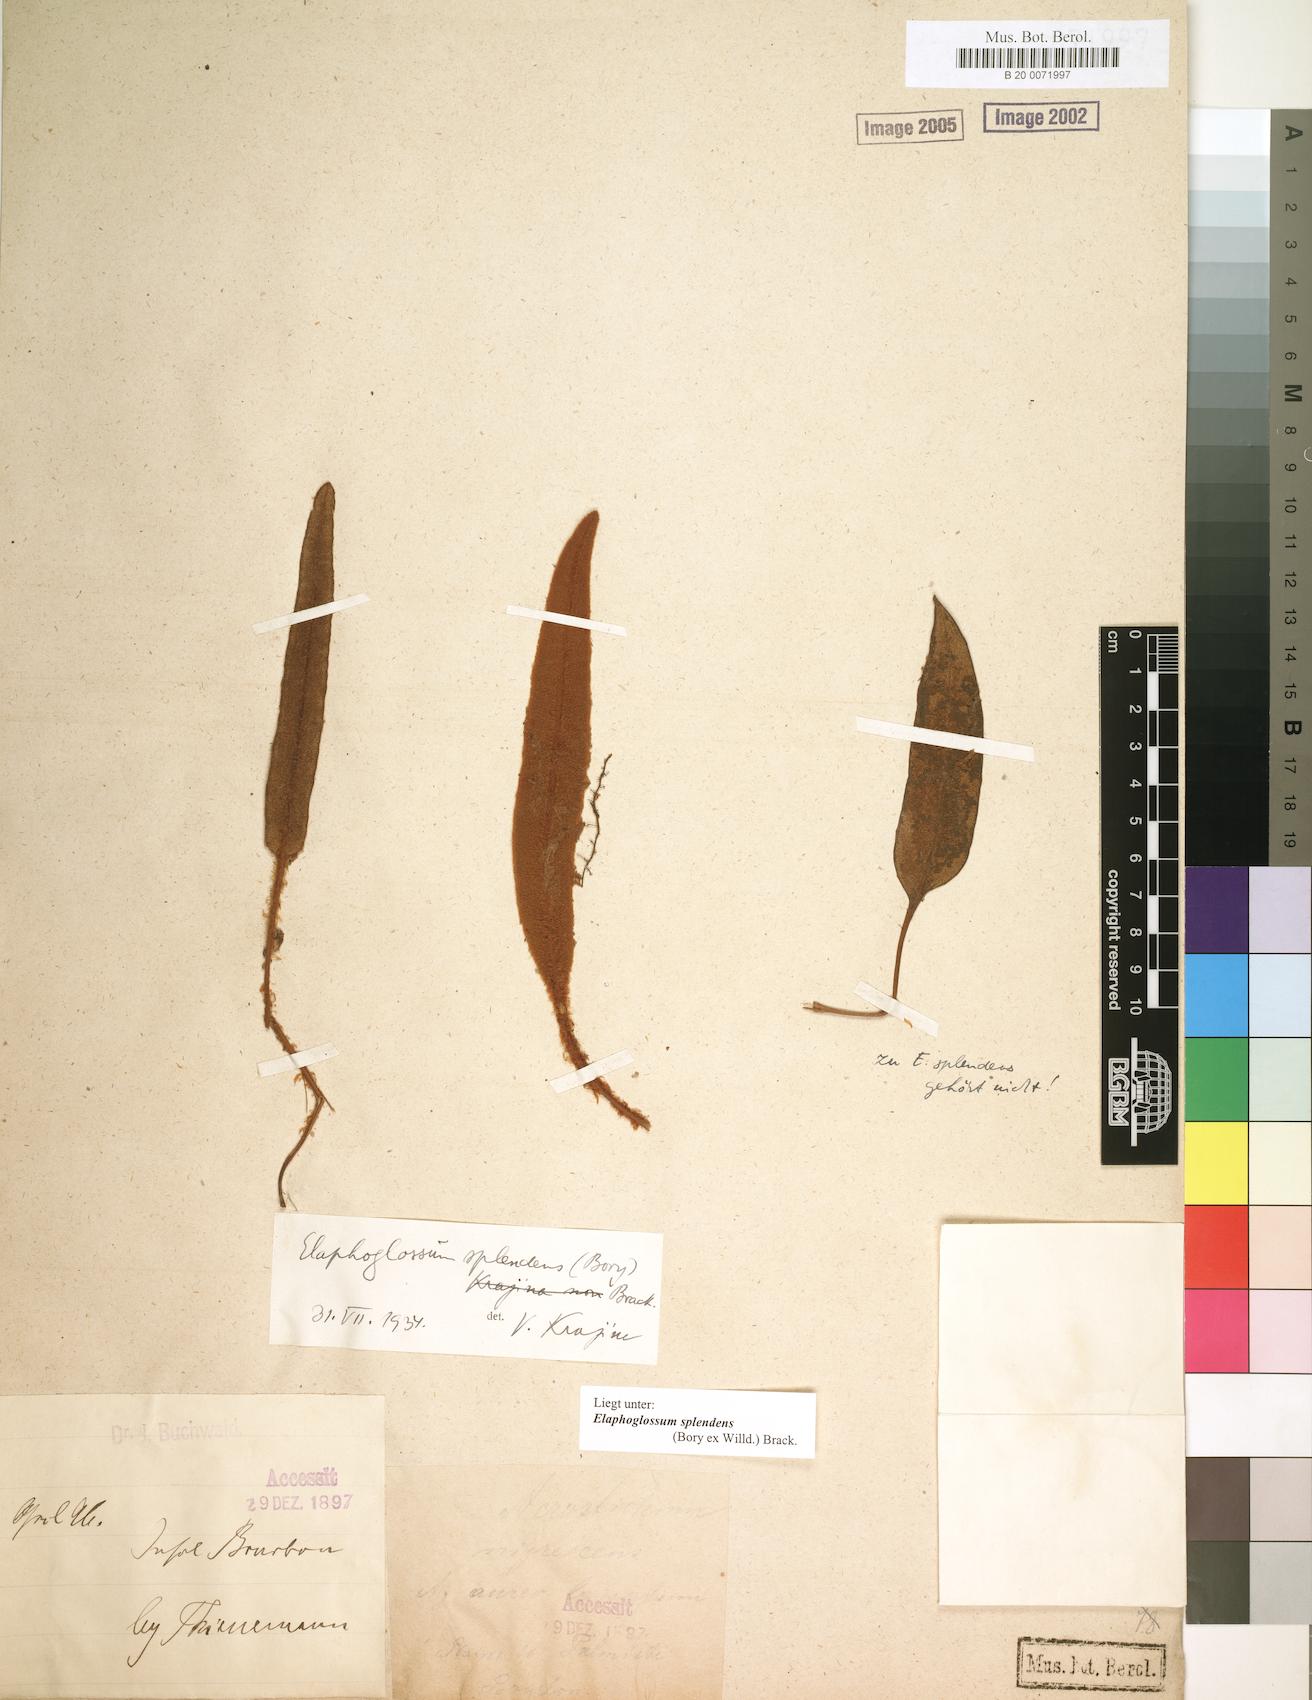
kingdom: Plantae
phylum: Tracheophyta
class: Polypodiopsida
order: Polypodiales
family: Dryopteridaceae
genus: Elaphoglossum
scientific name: Elaphoglossum splendens
